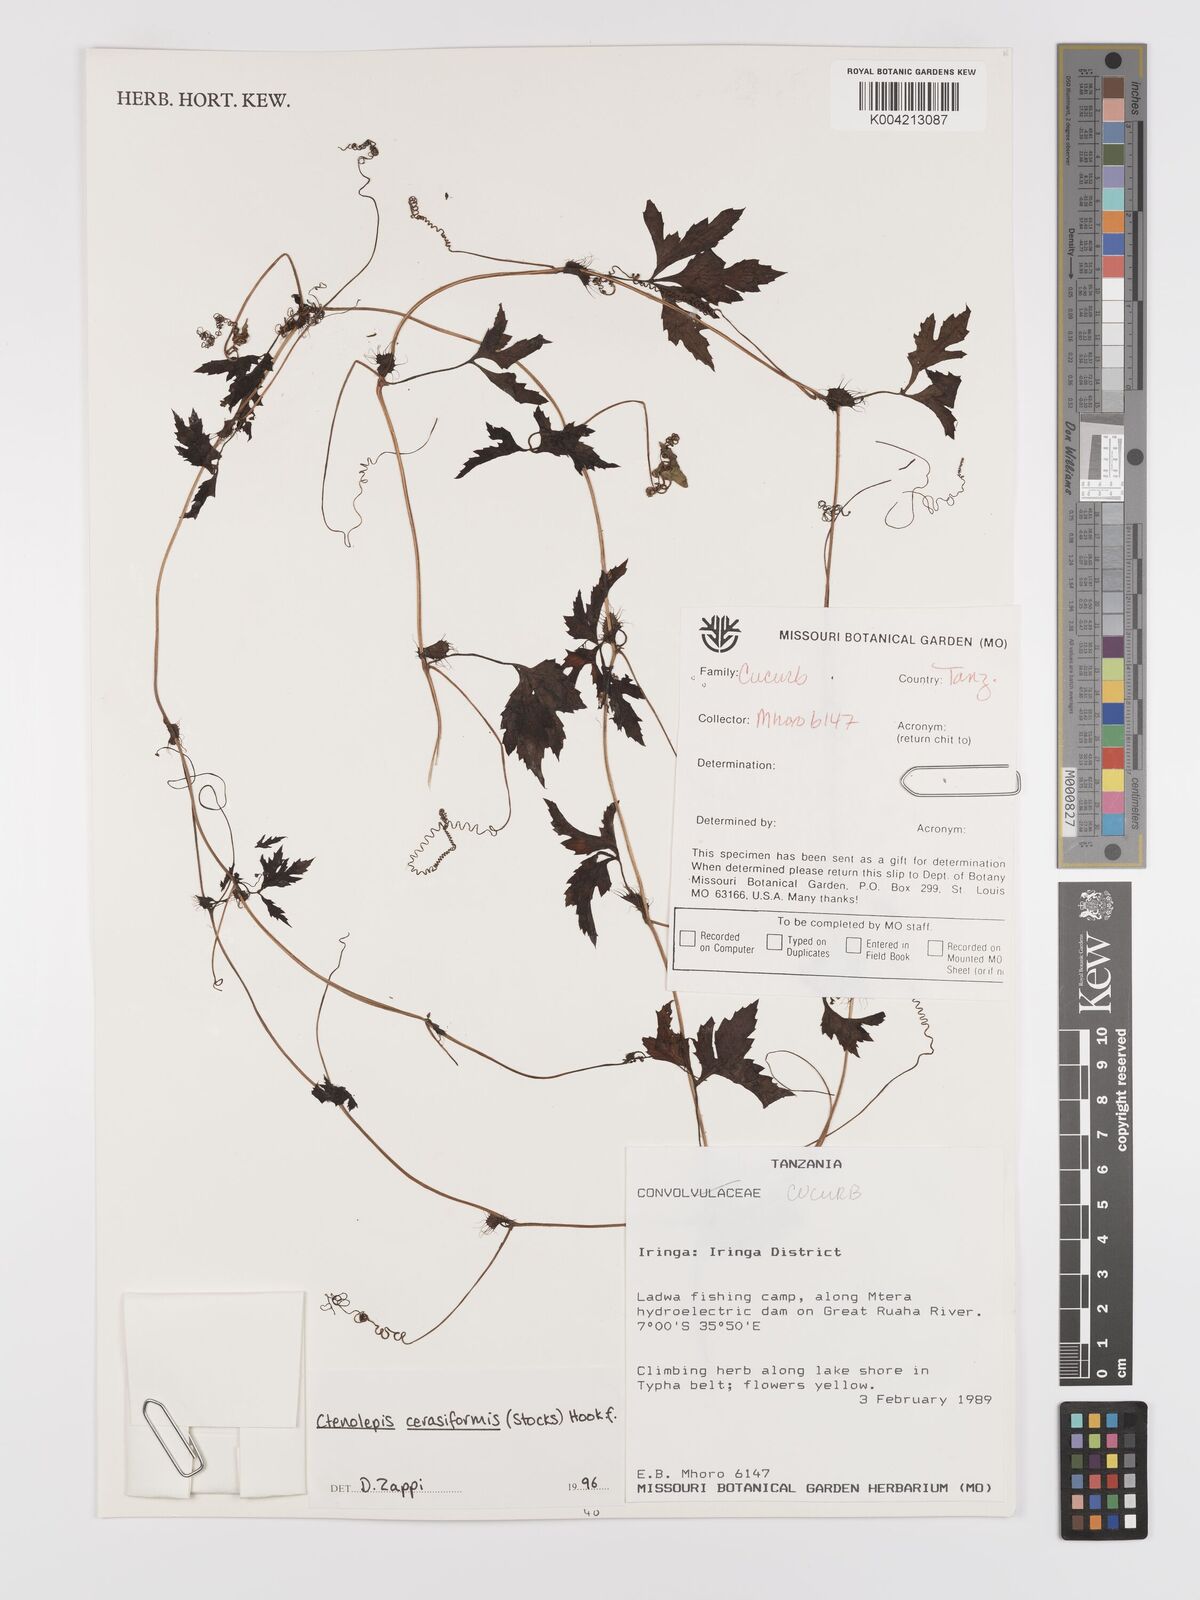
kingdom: Plantae
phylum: Tracheophyta
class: Magnoliopsida
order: Cucurbitales
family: Cucurbitaceae
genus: Blastania
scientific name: Blastania cerasiformis
